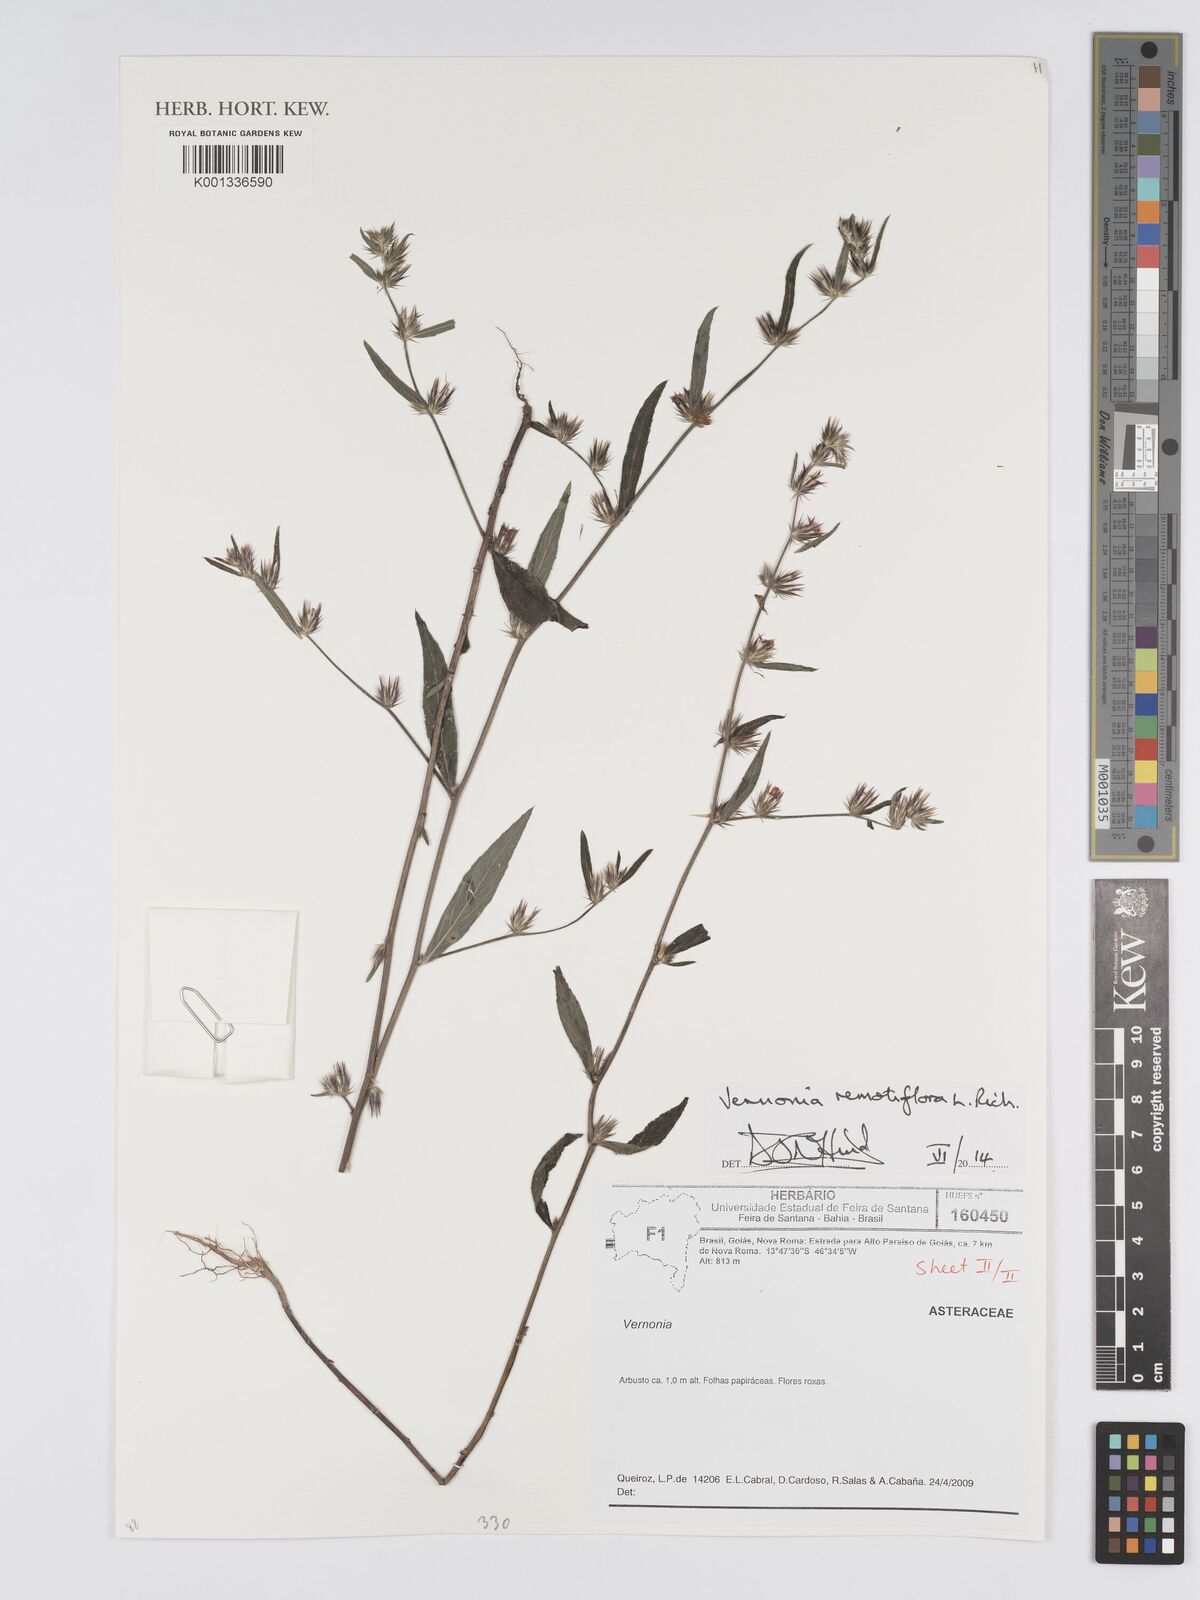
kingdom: Plantae
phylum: Tracheophyta
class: Magnoliopsida
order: Asterales
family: Asteraceae
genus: Lepidaploa
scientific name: Lepidaploa remotiflora
